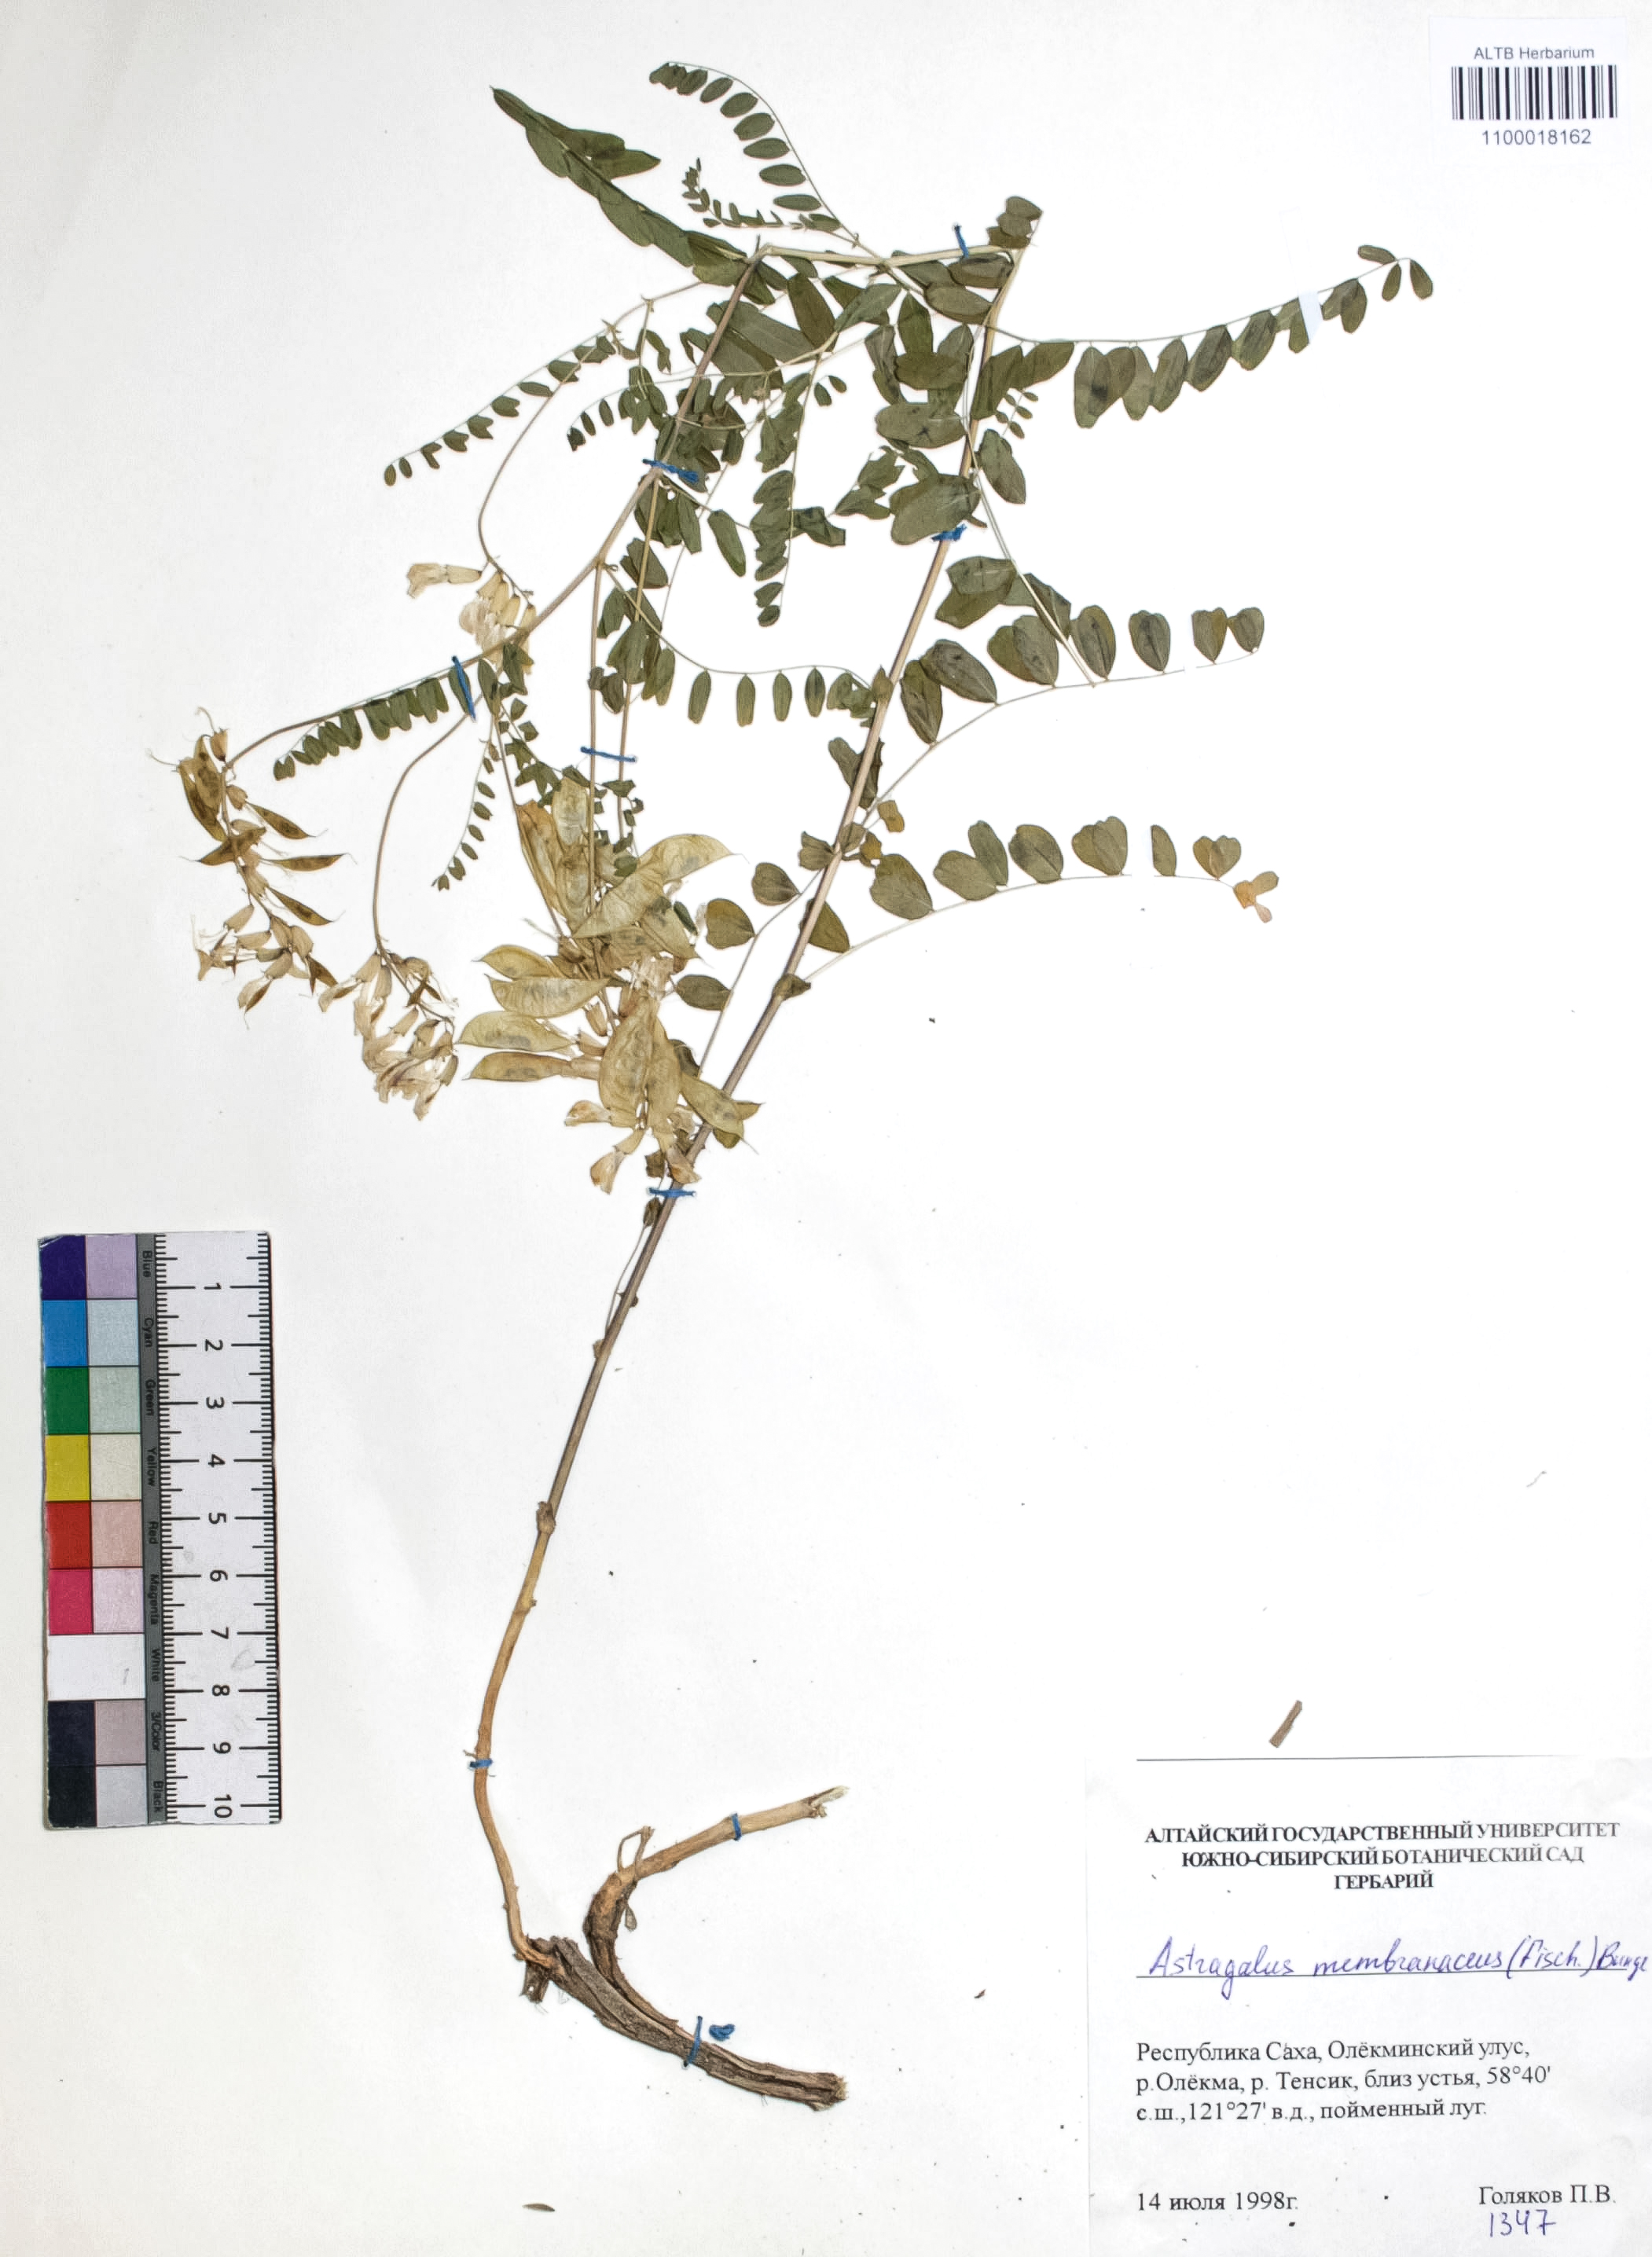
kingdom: Plantae
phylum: Tracheophyta
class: Magnoliopsida
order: Fabales
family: Fabaceae
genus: Astragalus
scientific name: Astragalus mongholicus
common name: Membranous milk-vetch
